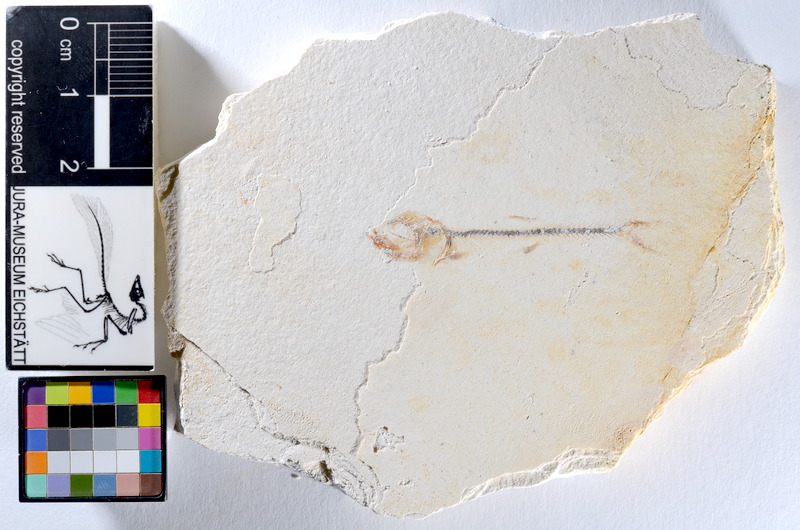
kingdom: Animalia
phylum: Chordata
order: Salmoniformes
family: Orthogonikleithridae
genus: Orthogonikleithrus
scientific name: Orthogonikleithrus hoelli
